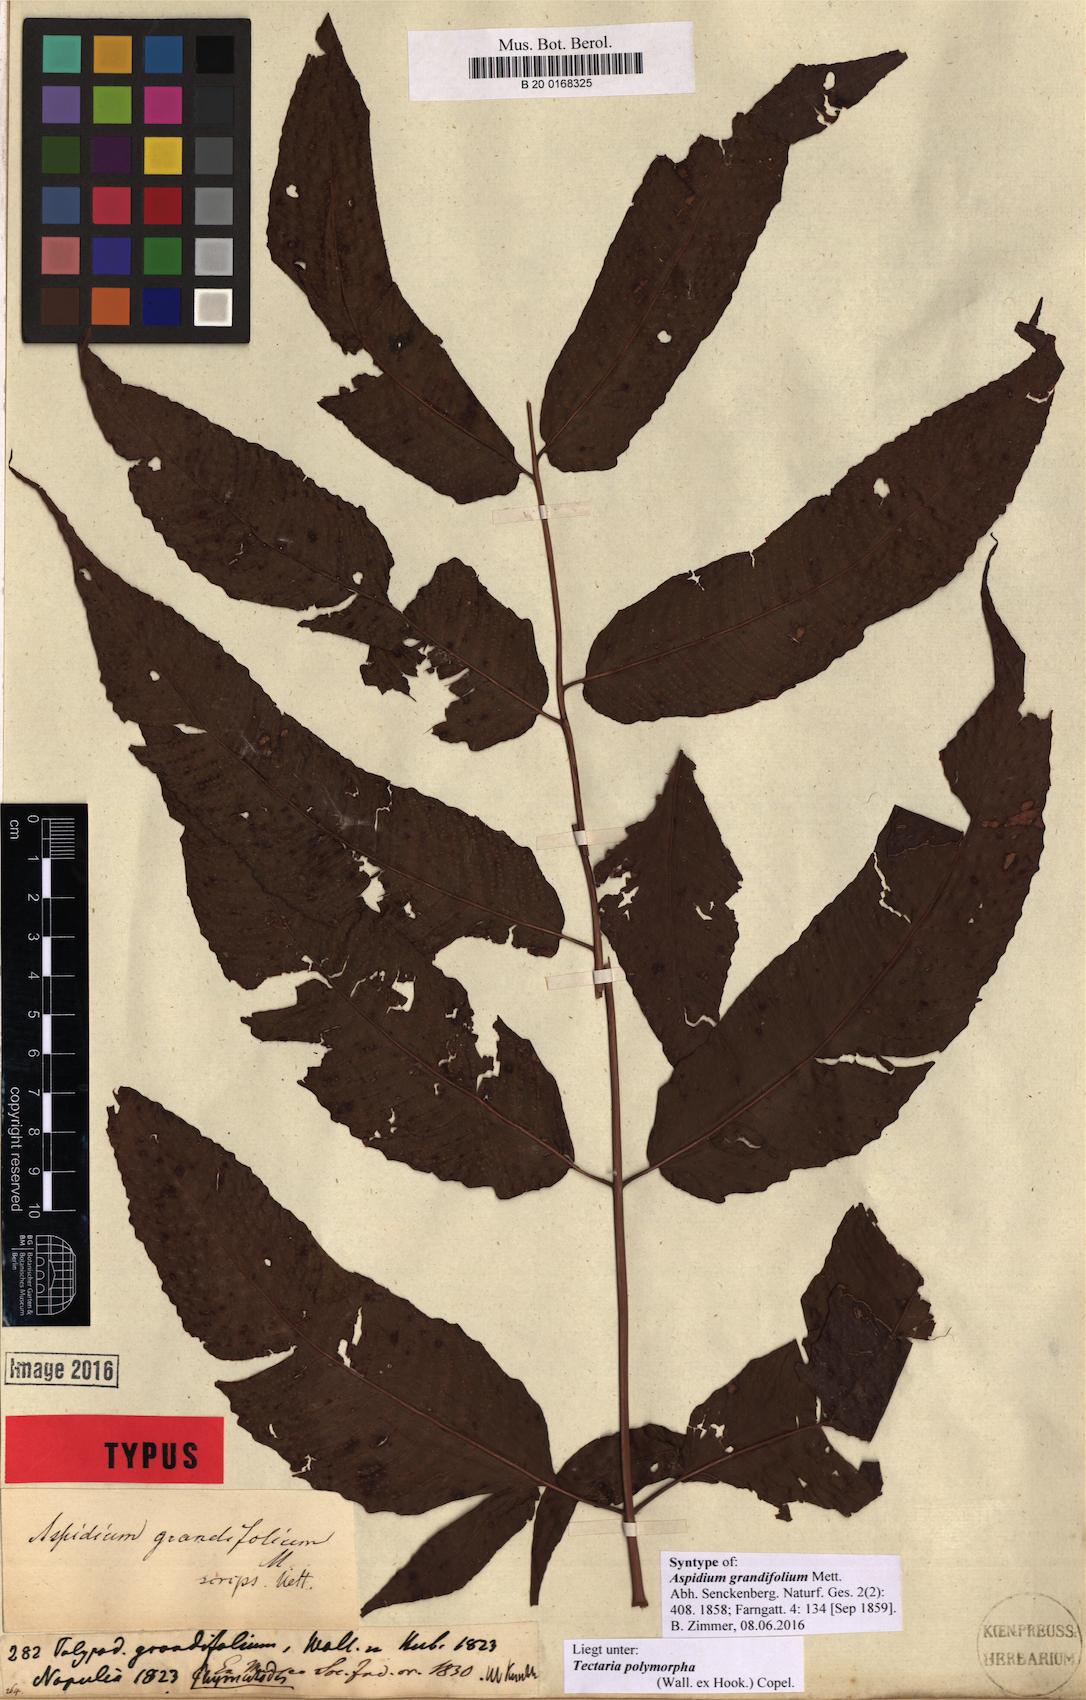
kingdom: Plantae
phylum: Tracheophyta
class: Polypodiopsida
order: Polypodiales
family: Tectariaceae
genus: Tectaria
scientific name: Tectaria polymorpha
